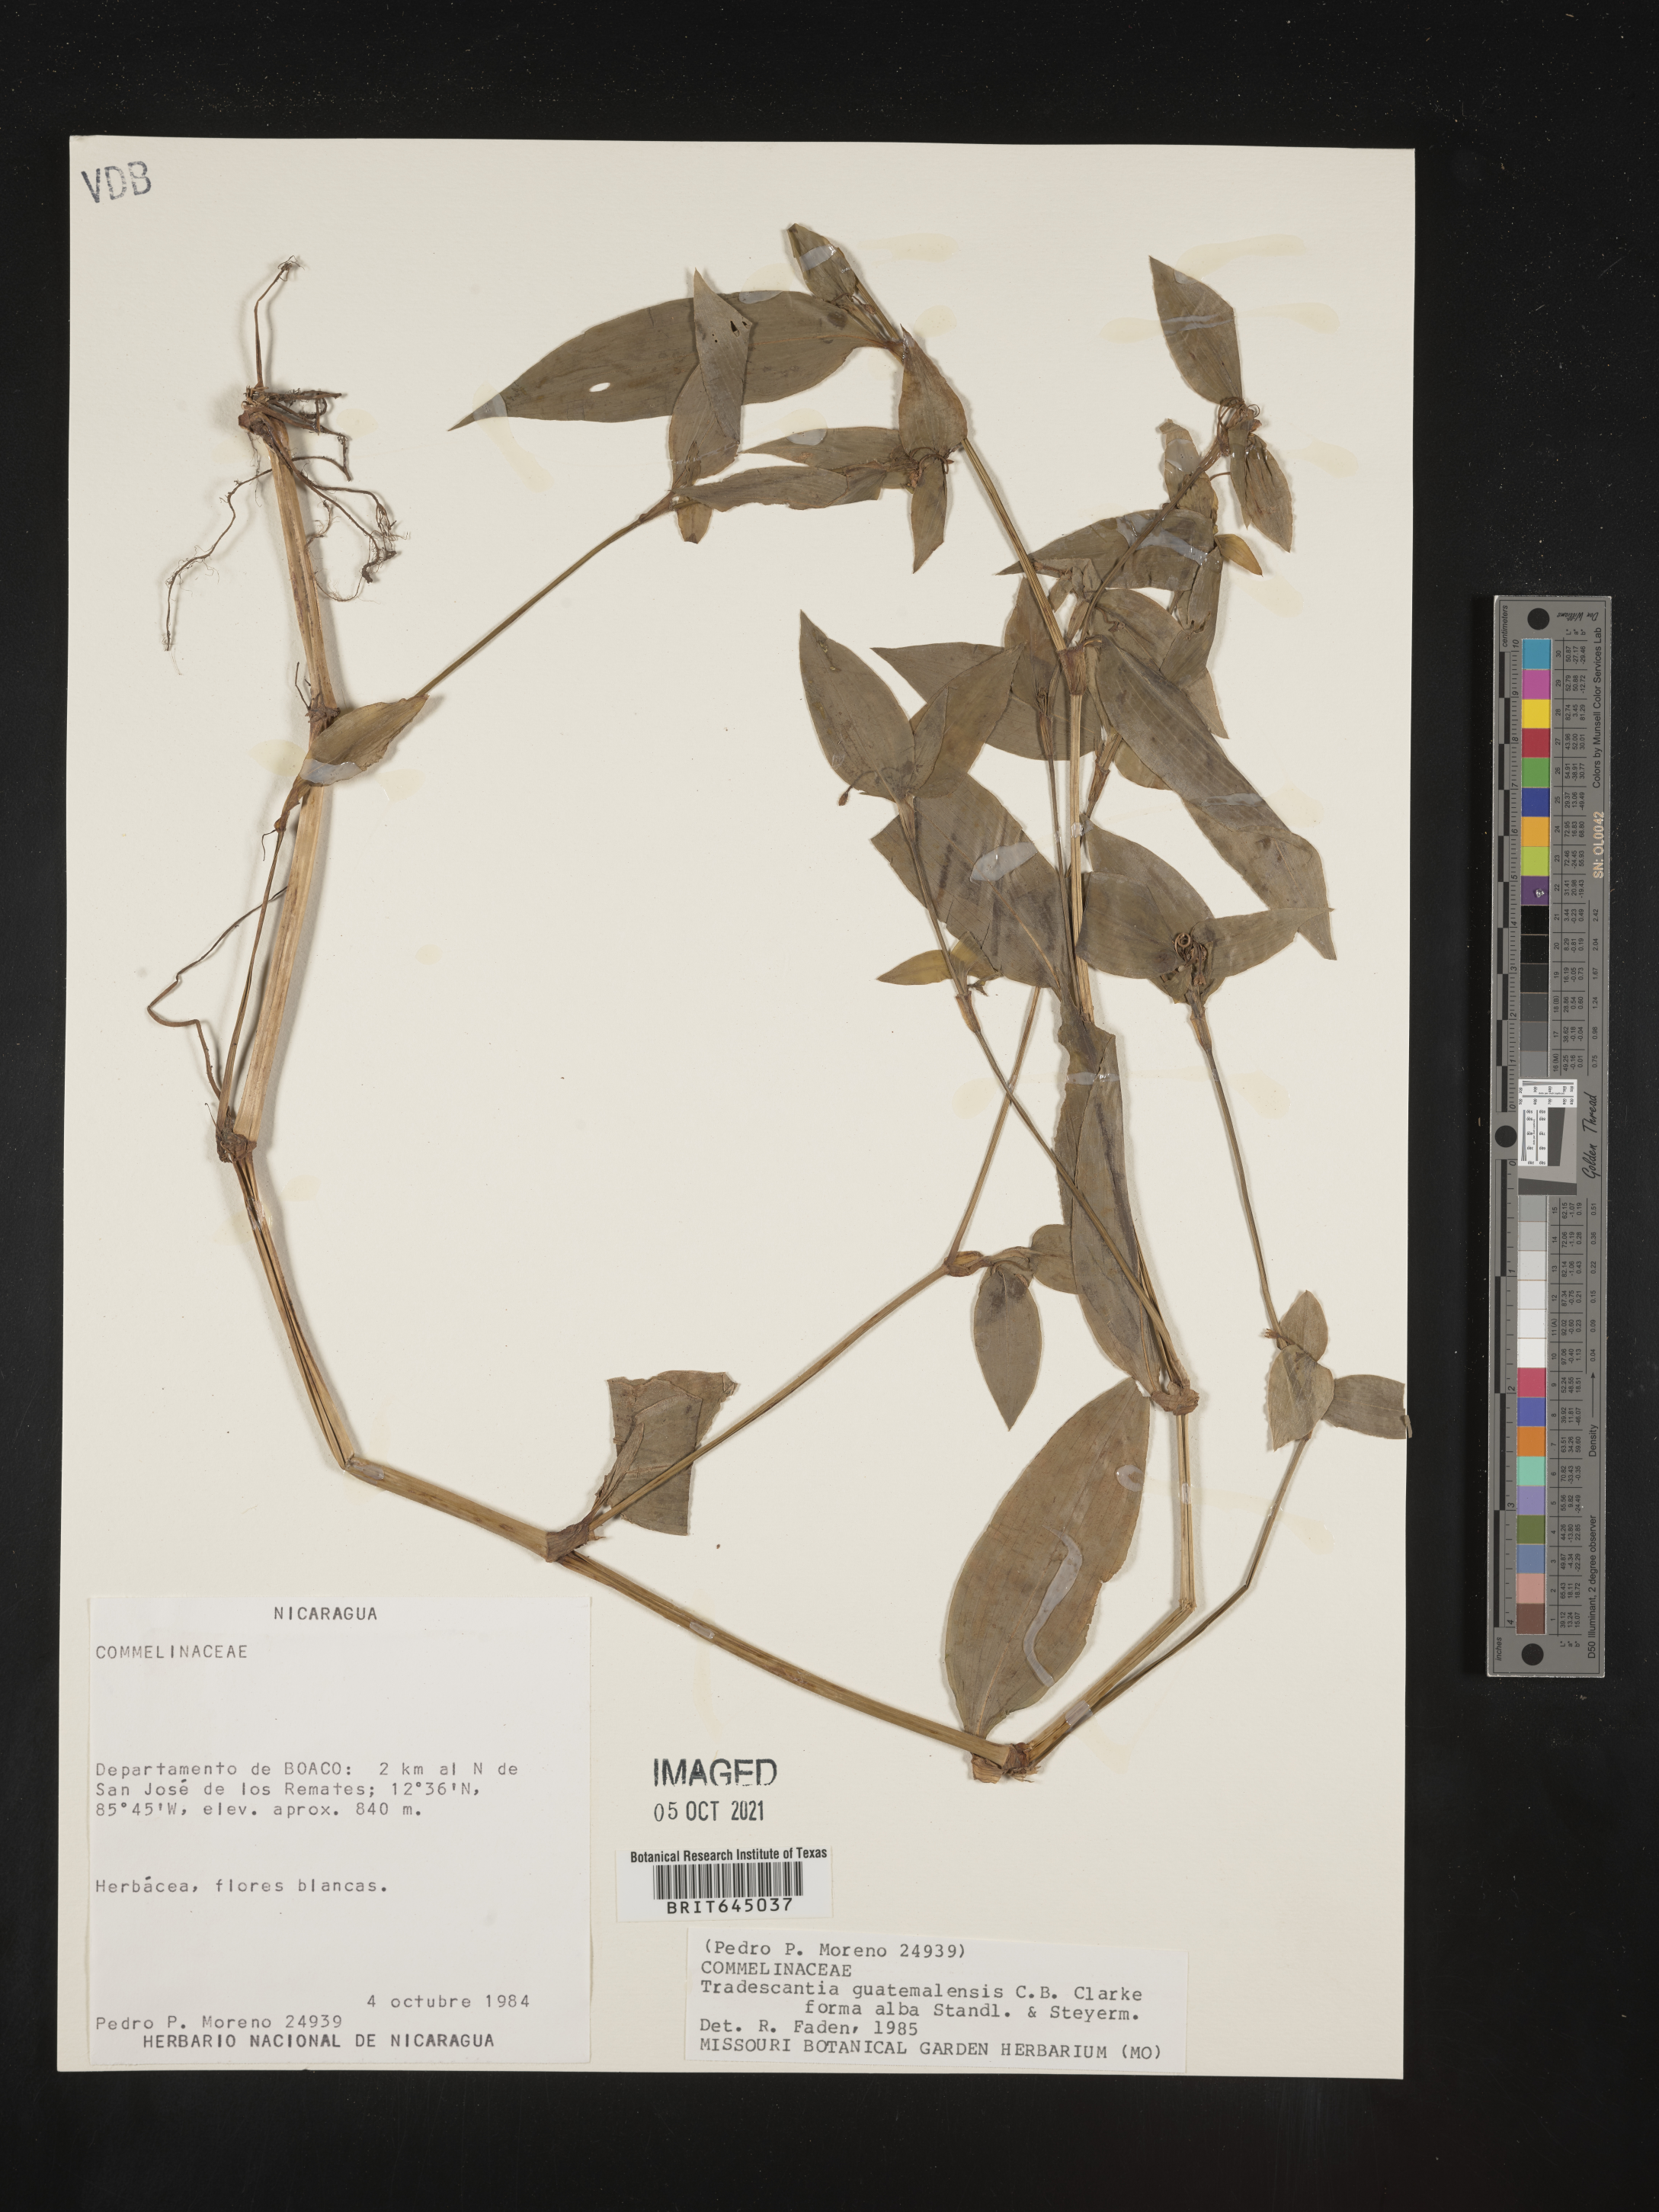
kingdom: Plantae
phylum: Tracheophyta
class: Liliopsida
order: Commelinales
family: Commelinaceae
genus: Elasis
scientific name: Elasis guatemalensis
